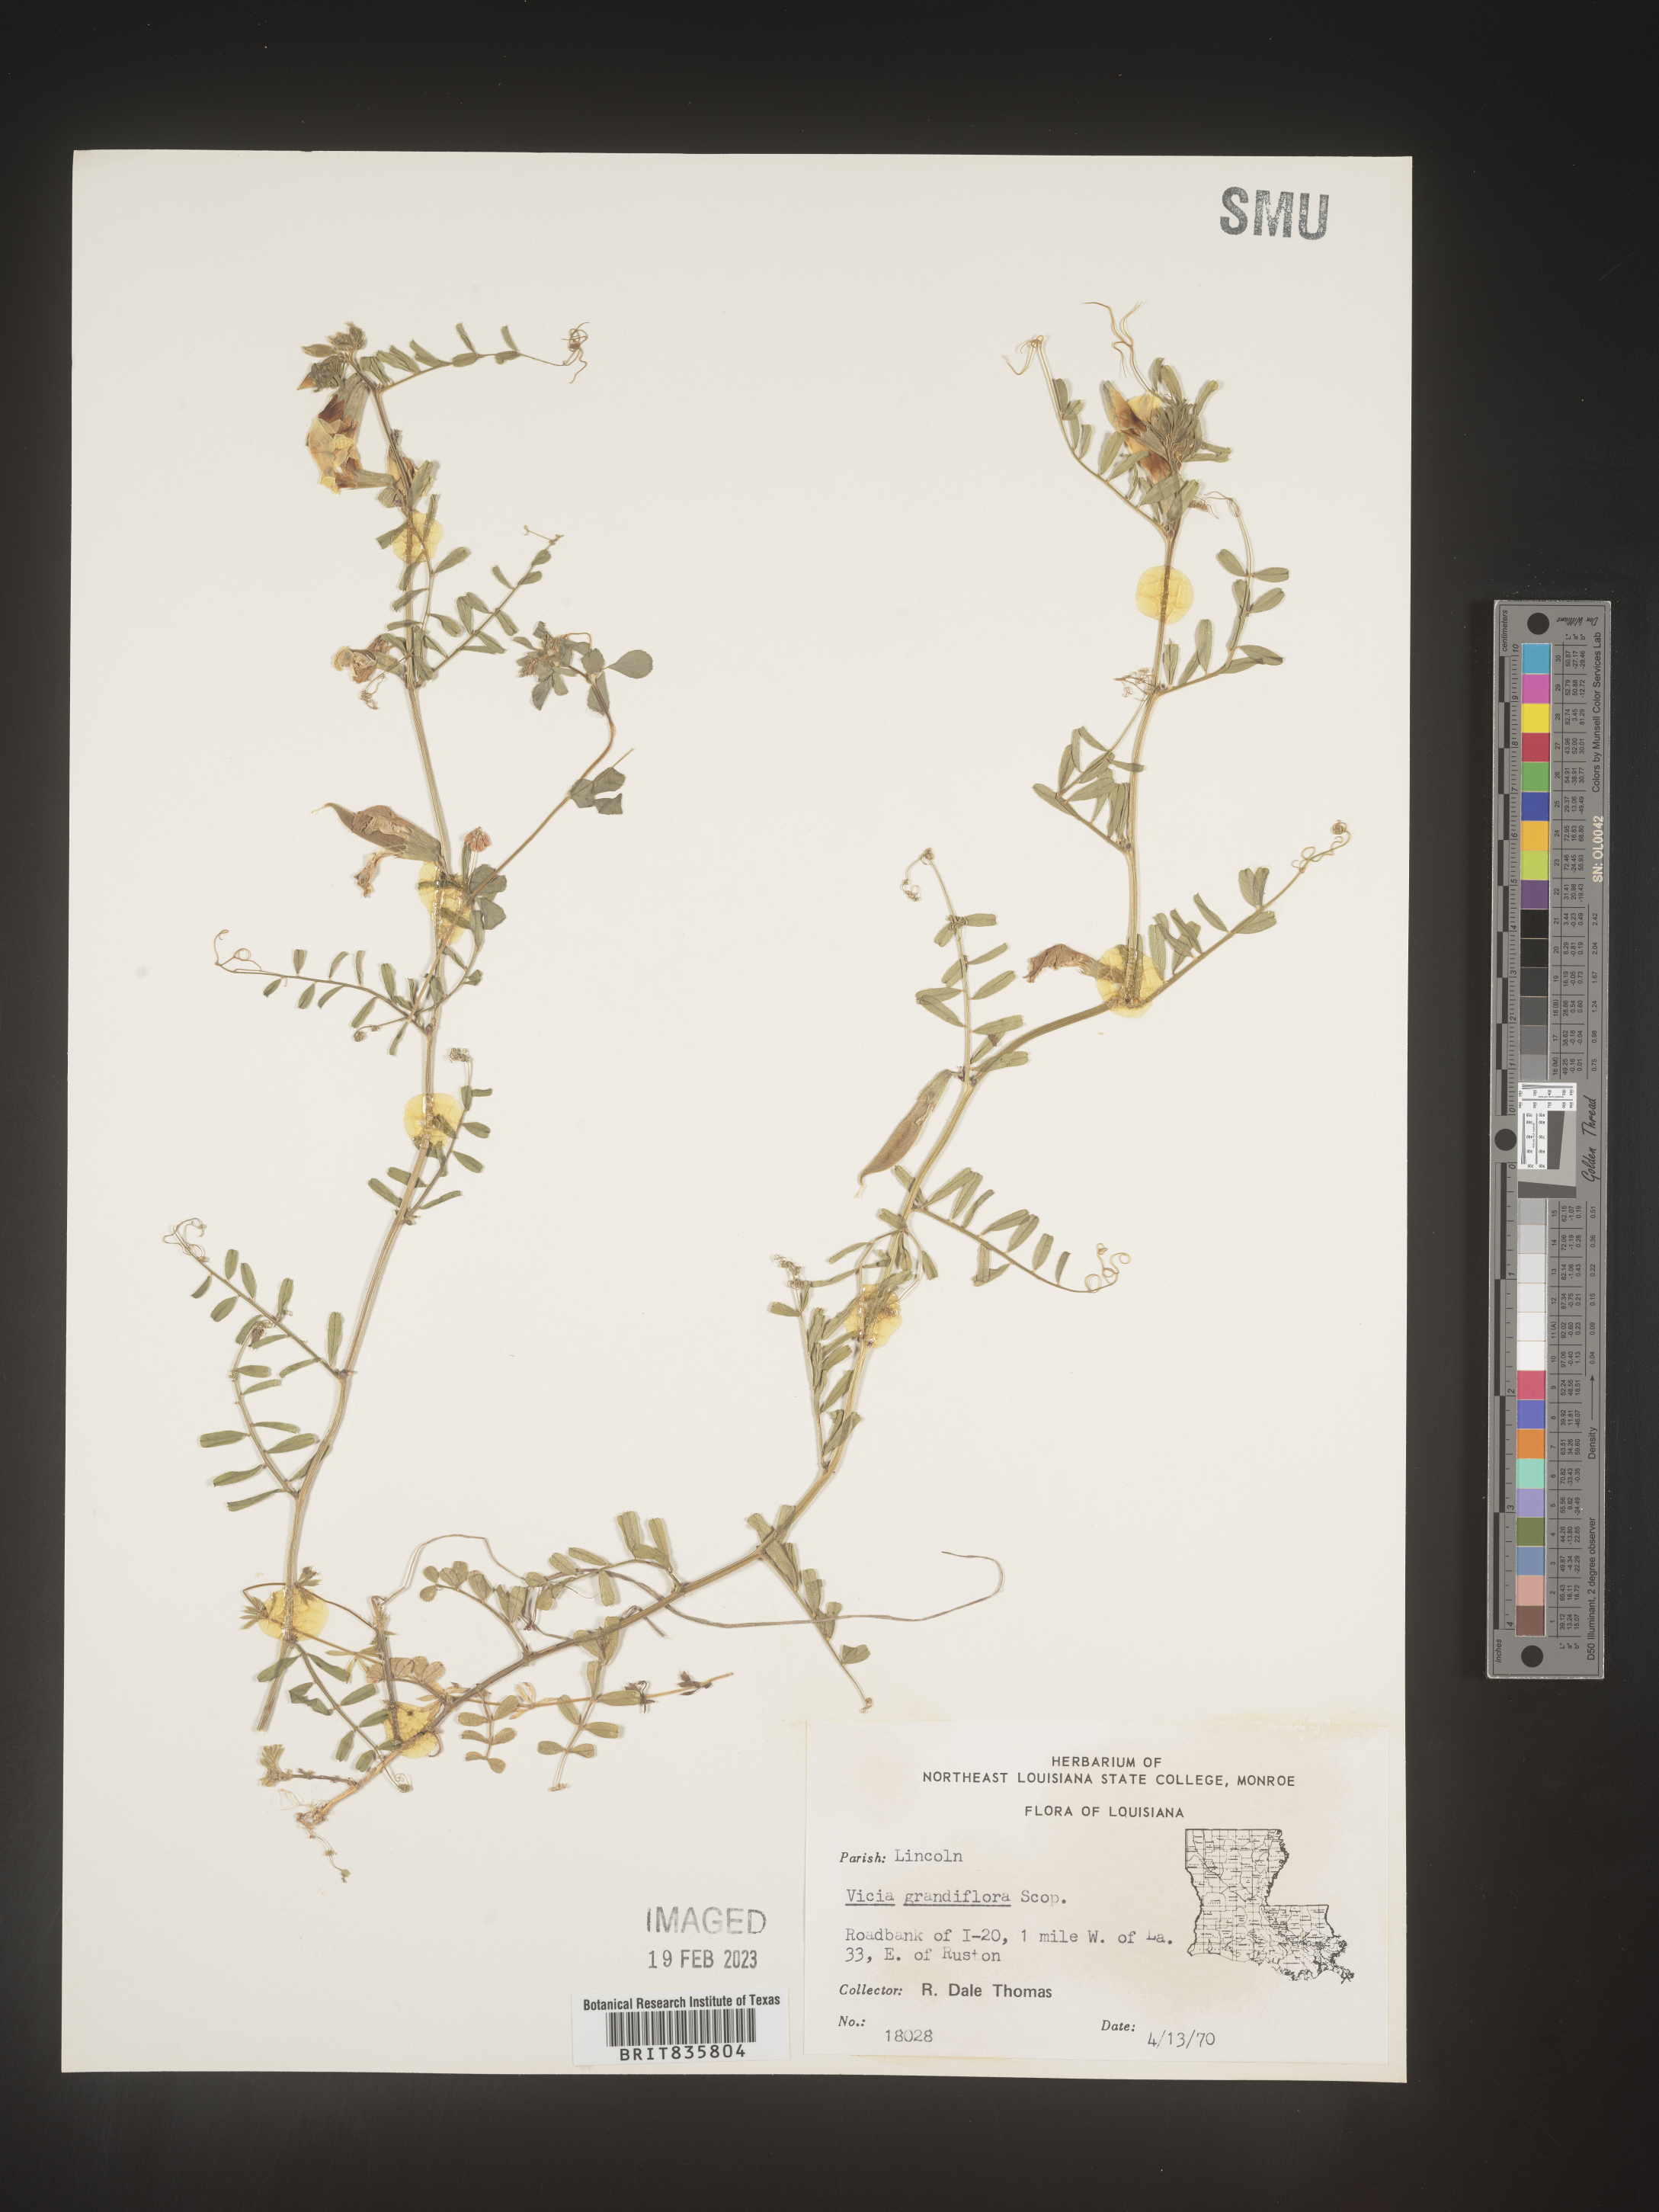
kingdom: Plantae
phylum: Tracheophyta
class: Magnoliopsida
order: Fabales
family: Fabaceae
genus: Vicia
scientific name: Vicia grandiflora
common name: Large yellow vetch
